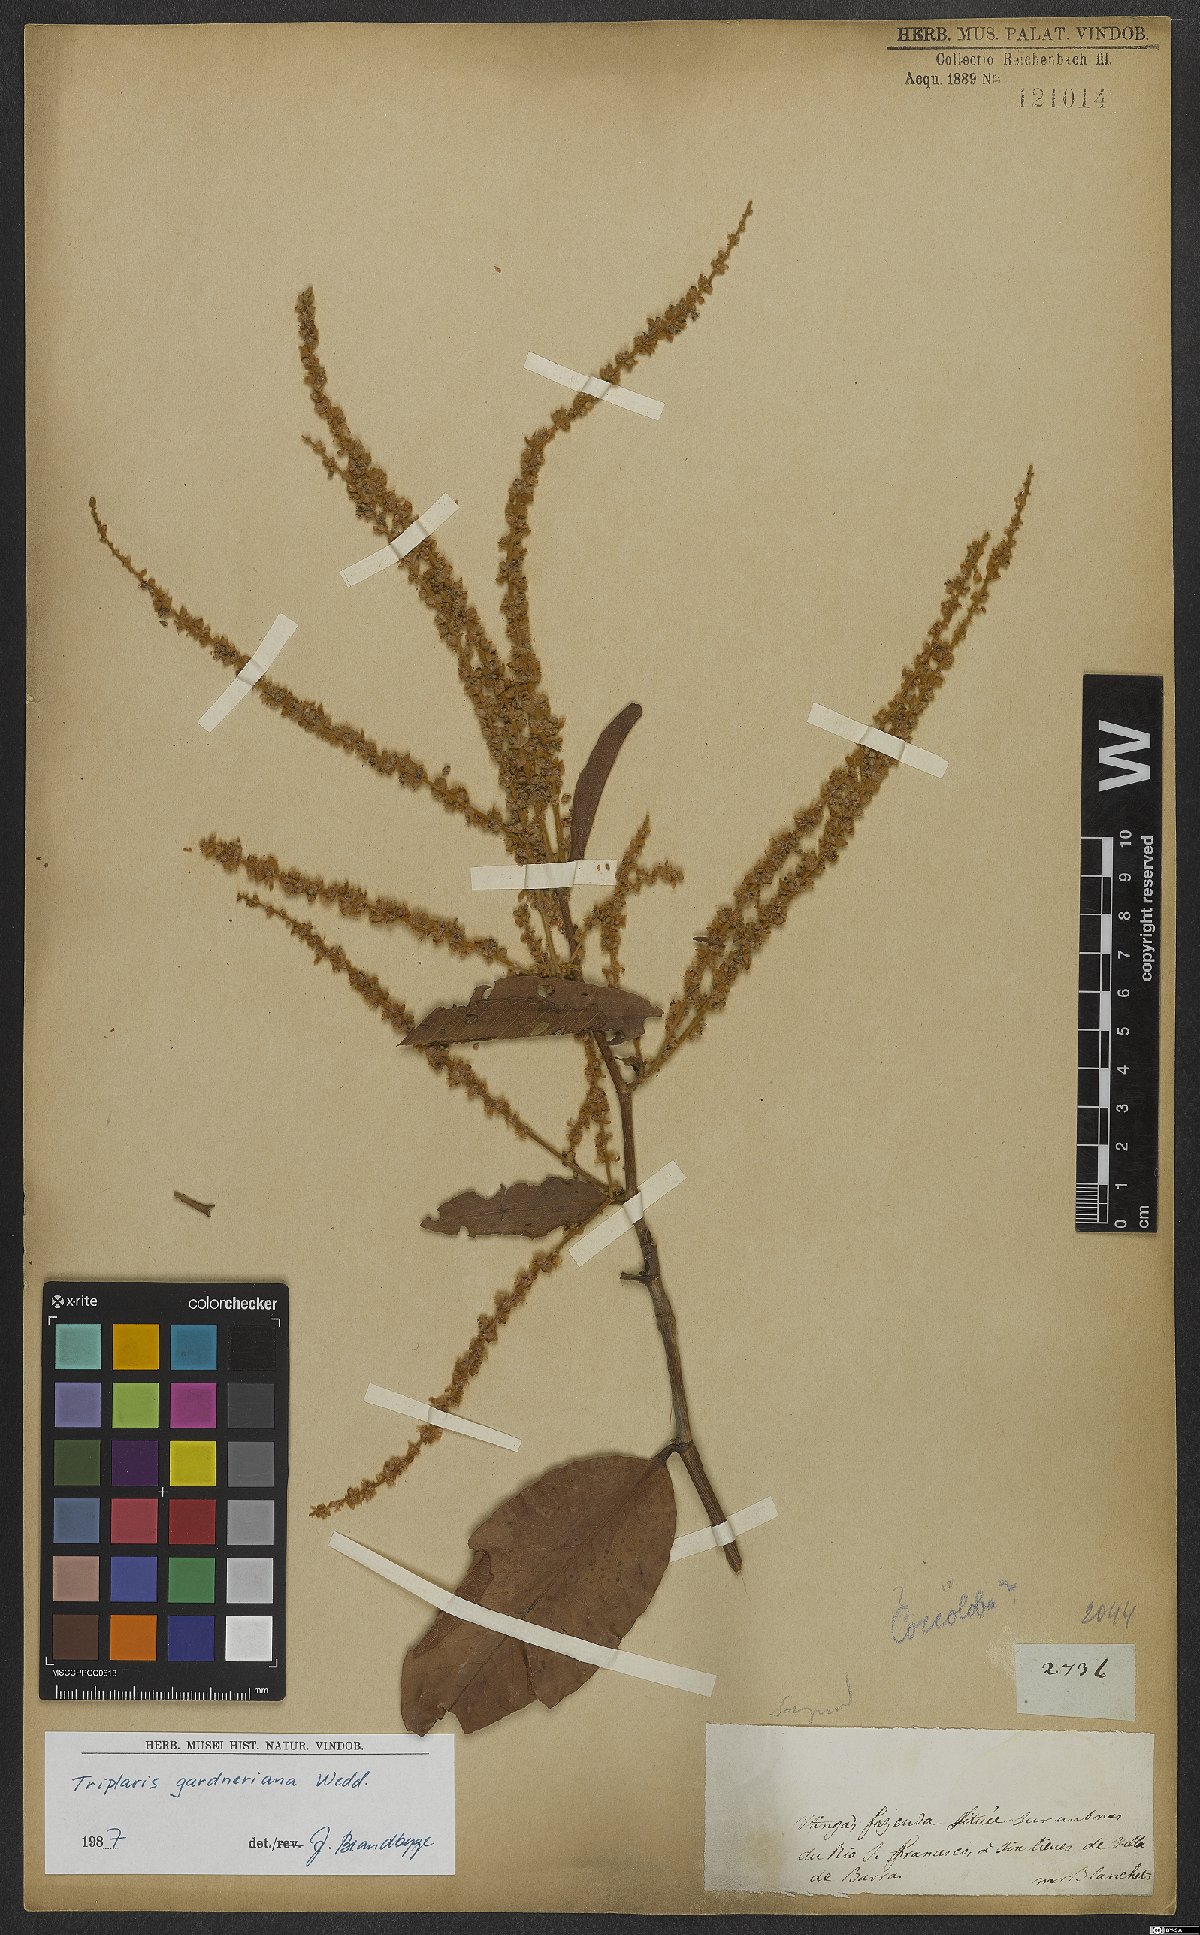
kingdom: Plantae
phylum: Tracheophyta
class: Magnoliopsida
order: Caryophyllales
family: Polygonaceae
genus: Triplaris
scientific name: Triplaris gardneriana
